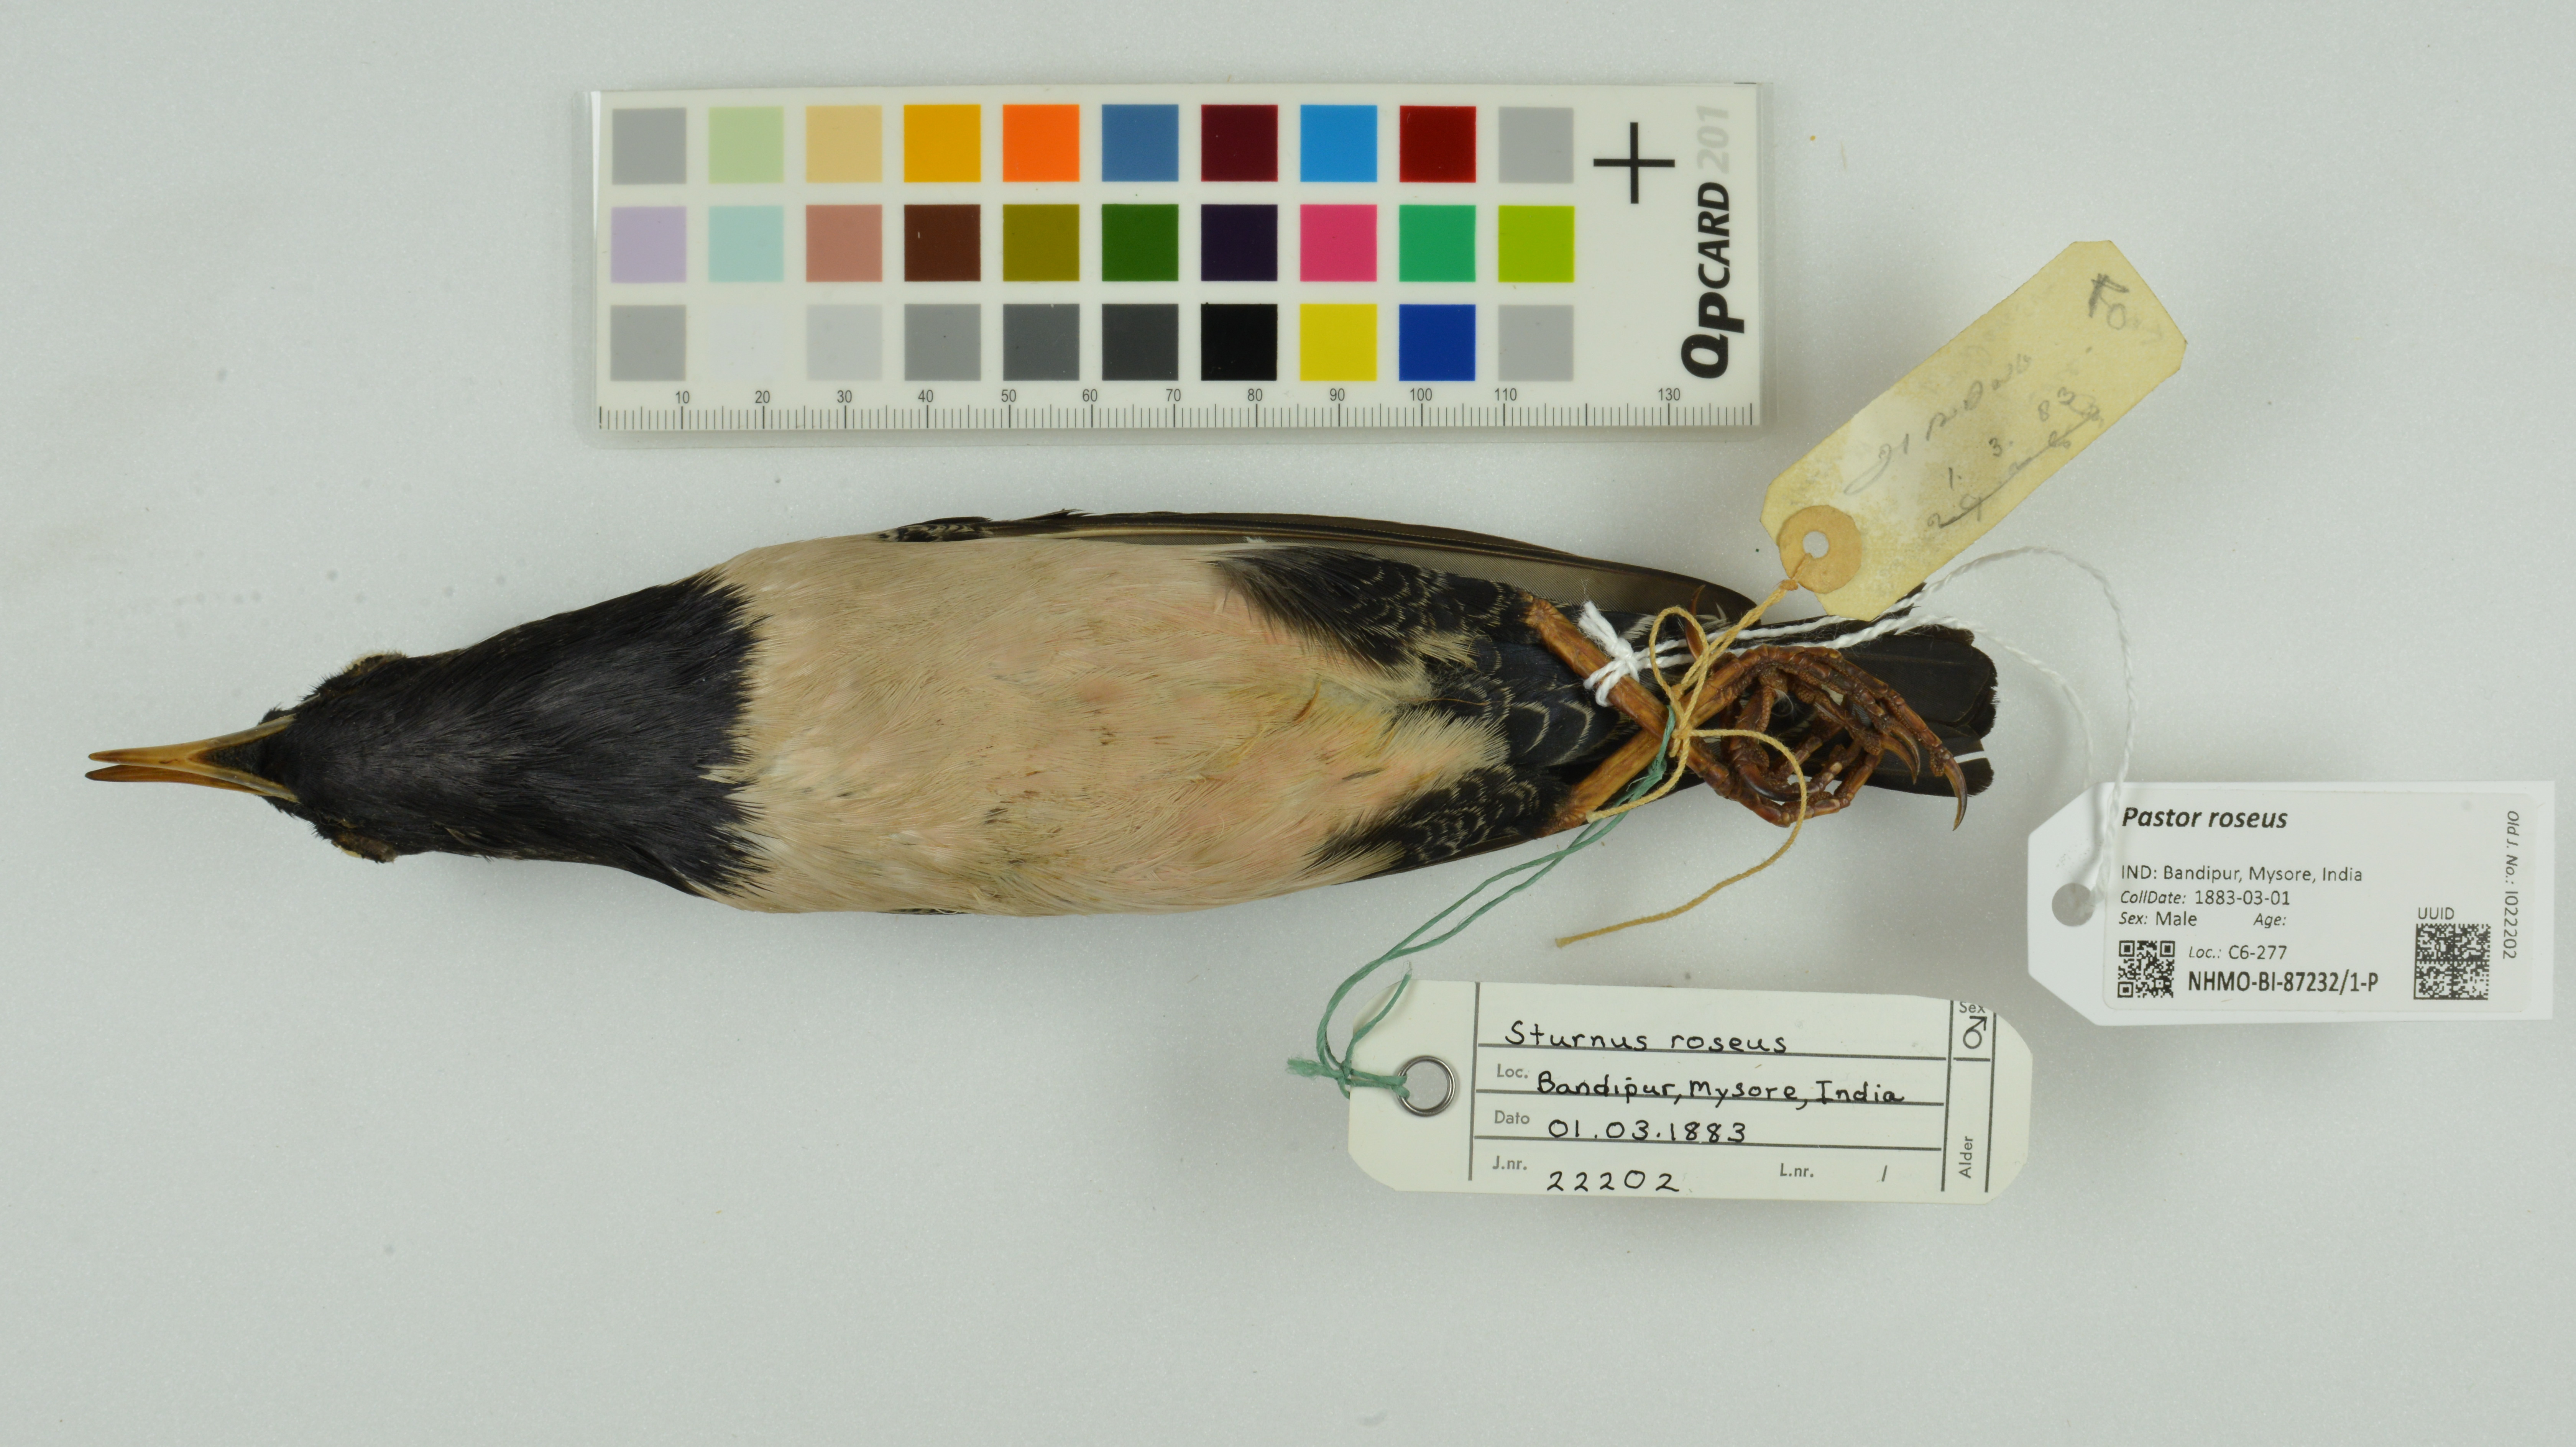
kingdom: Animalia
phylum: Chordata
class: Aves
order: Passeriformes
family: Sturnidae
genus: Pastor
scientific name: Pastor roseus
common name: Rosy starling
